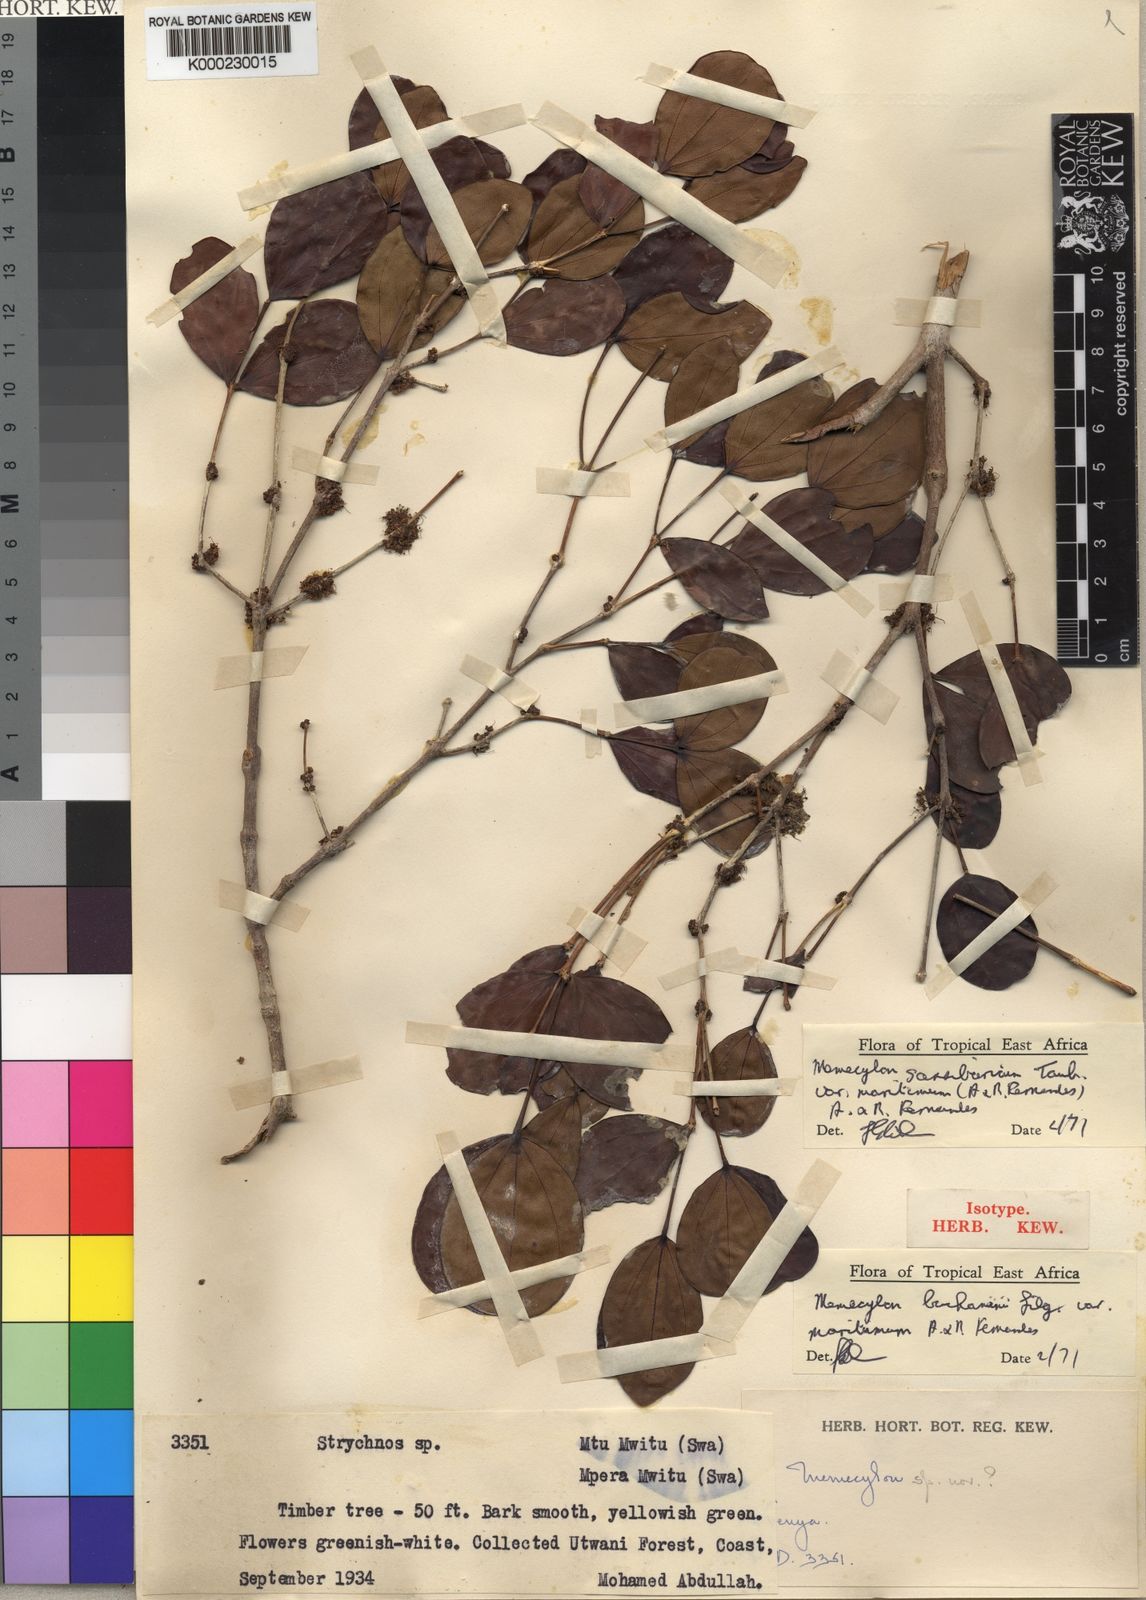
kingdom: Plantae
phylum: Tracheophyta
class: Magnoliopsida
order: Myrtales
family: Melastomataceae
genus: Warneckea
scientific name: Warneckea
